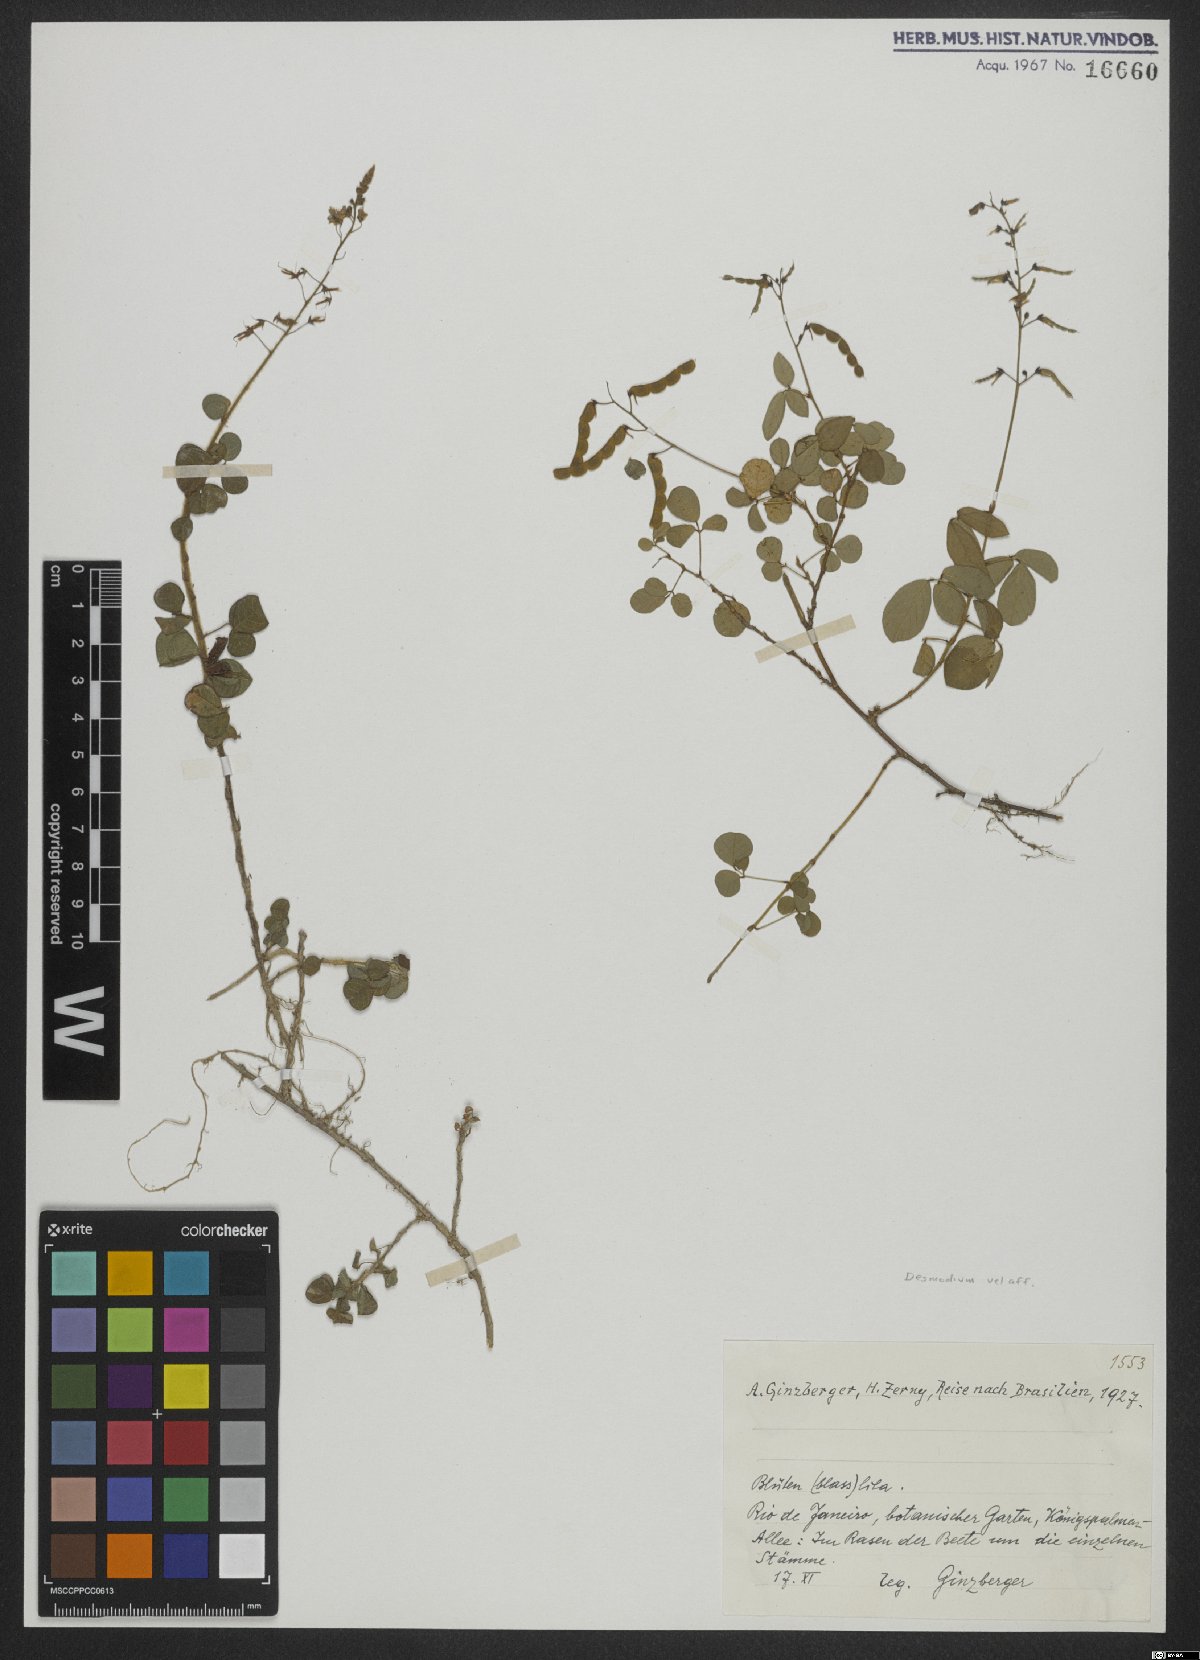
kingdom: Plantae
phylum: Tracheophyta
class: Magnoliopsida
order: Fabales
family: Fabaceae
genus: Desmodium
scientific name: Desmodium
